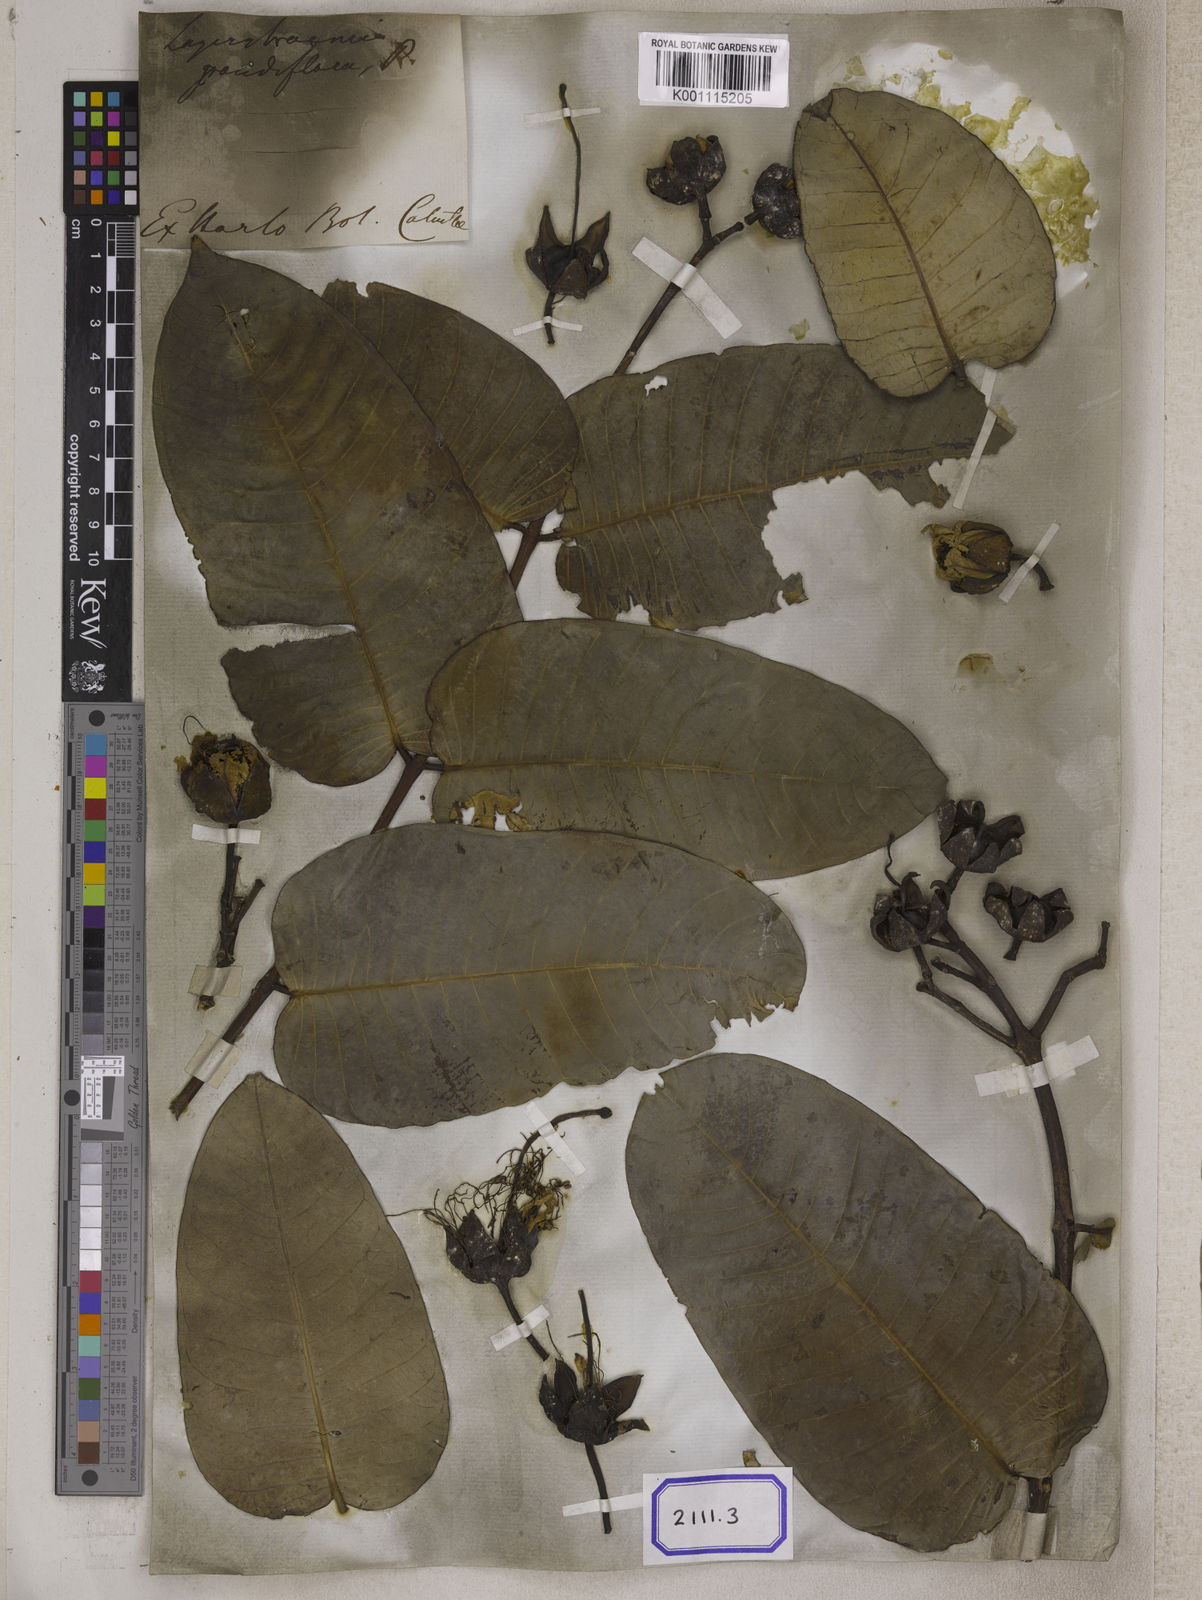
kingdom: Plantae
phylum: Tracheophyta
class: Magnoliopsida
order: Myrtales
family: Lythraceae
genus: Lagerstroemia
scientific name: Lagerstroemia
